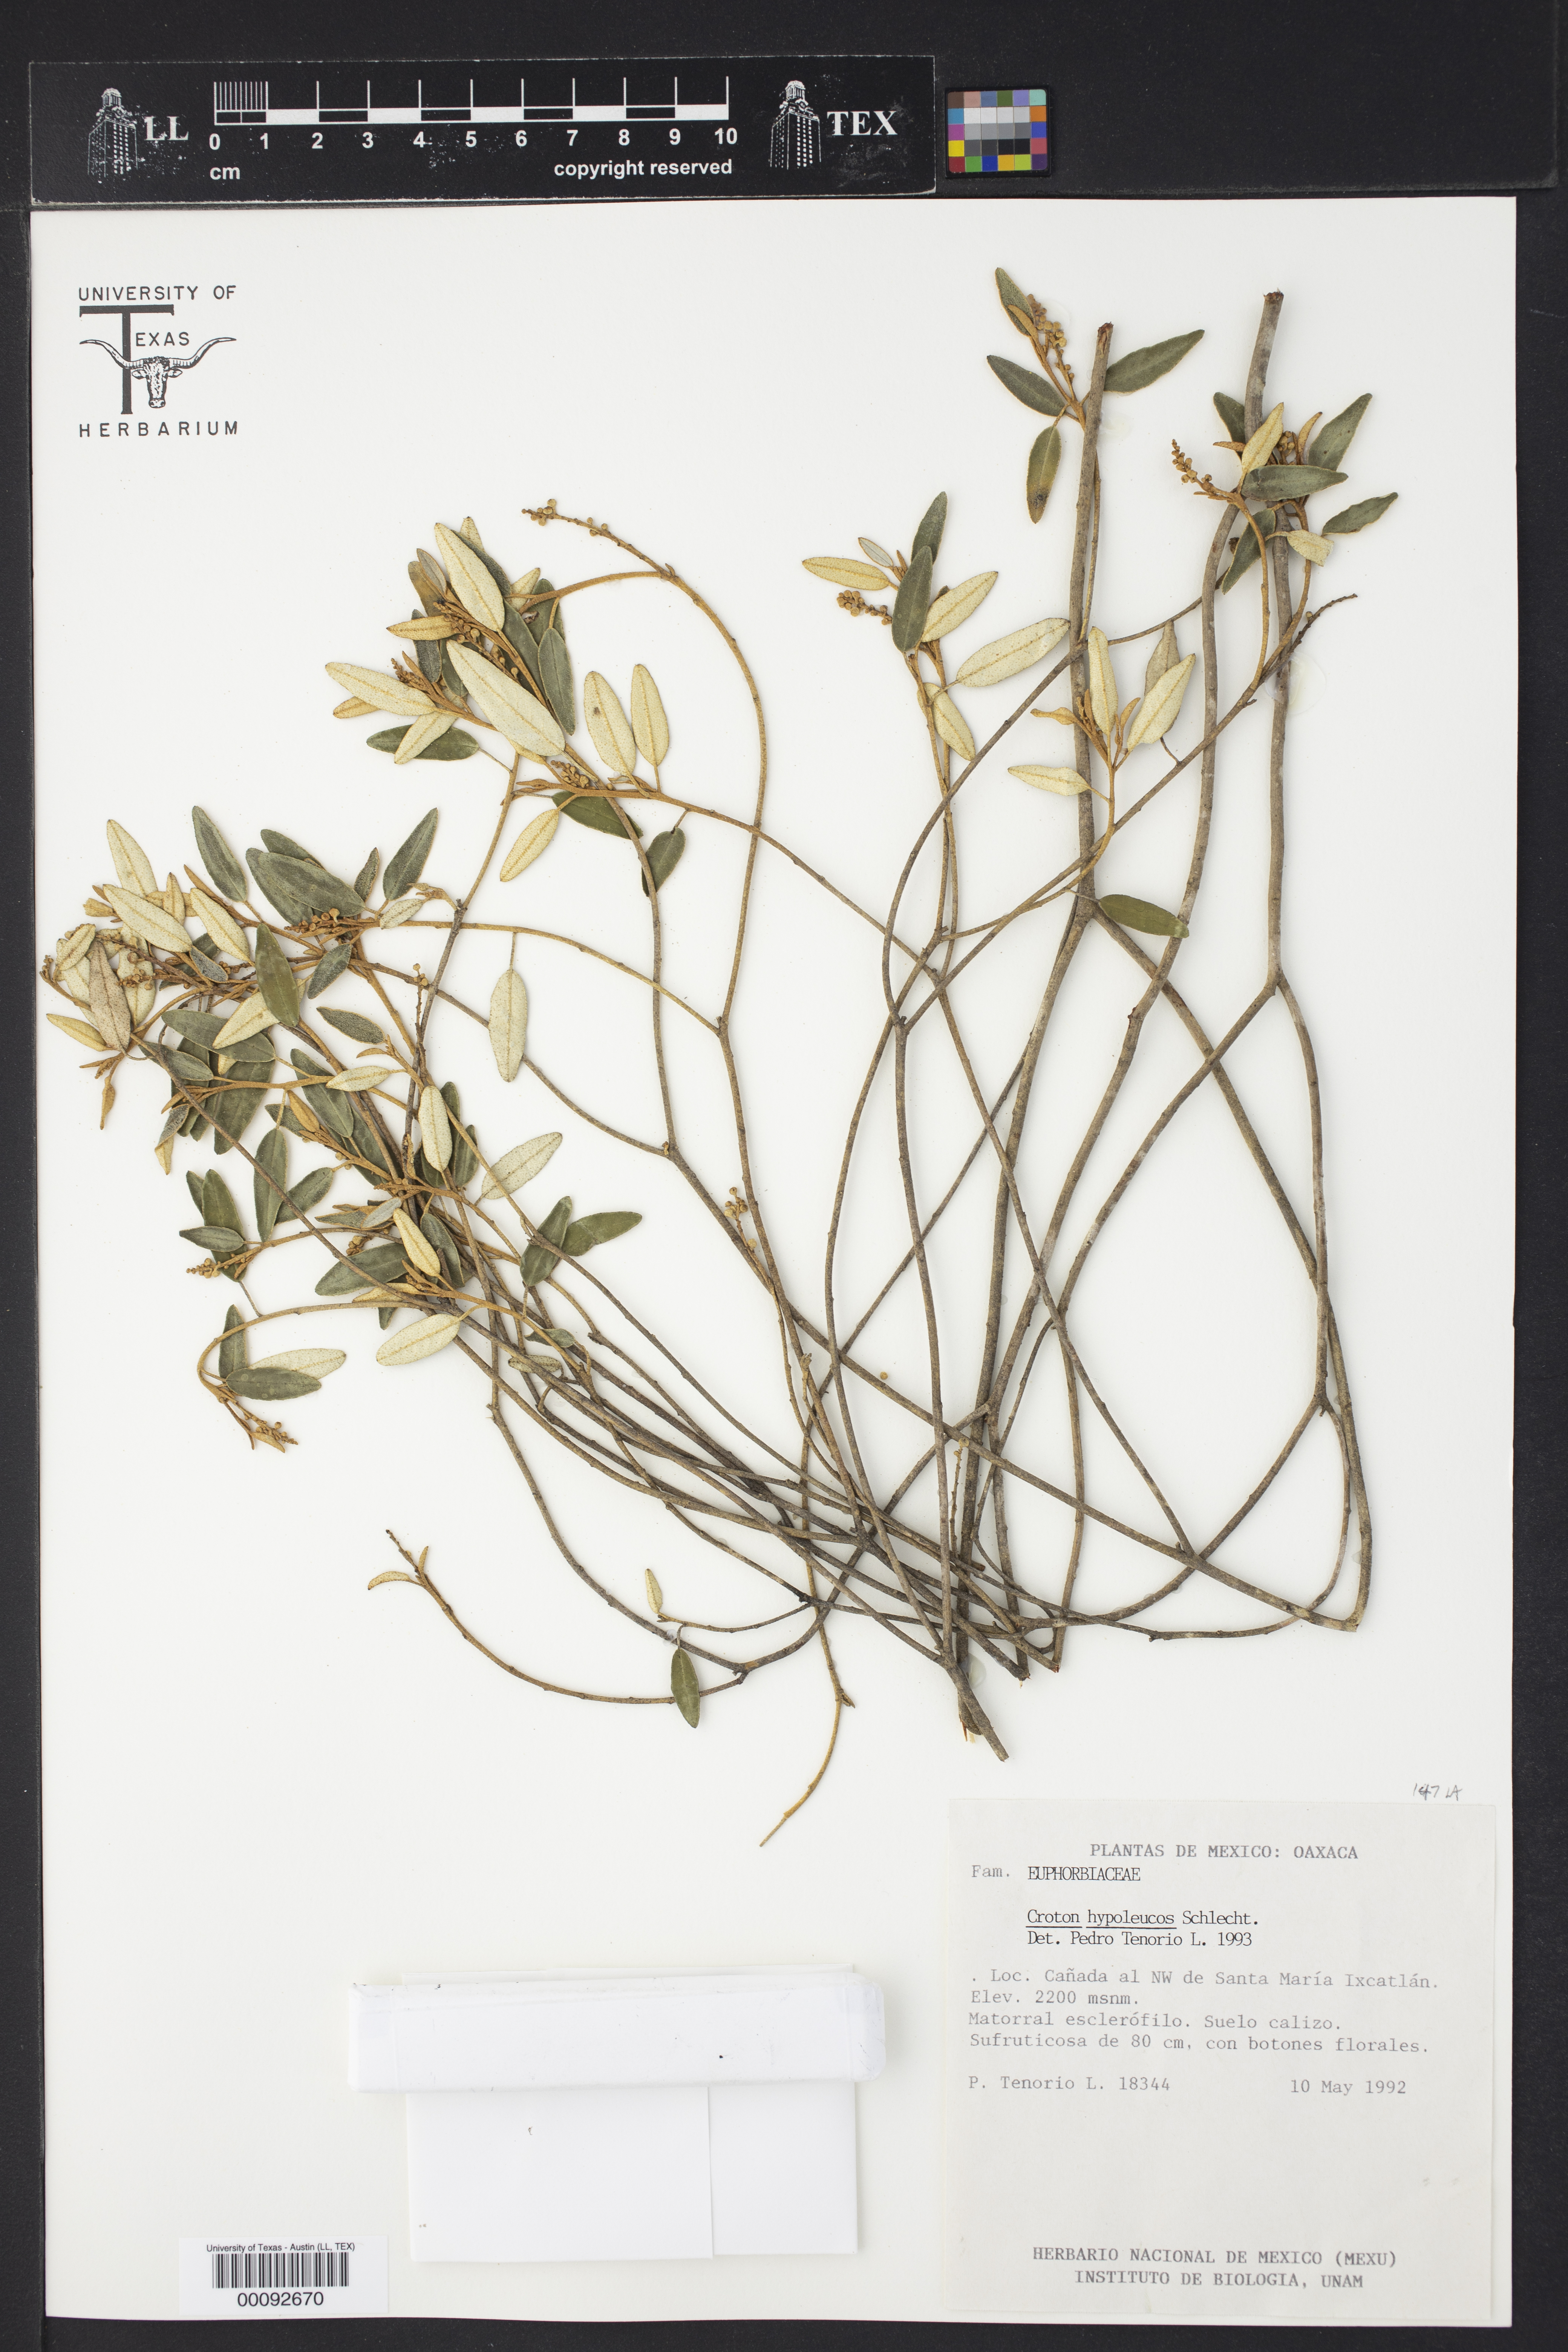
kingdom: Plantae
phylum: Tracheophyta
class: Magnoliopsida
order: Malpighiales
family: Euphorbiaceae
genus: Croton
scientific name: Croton hypoleucus
